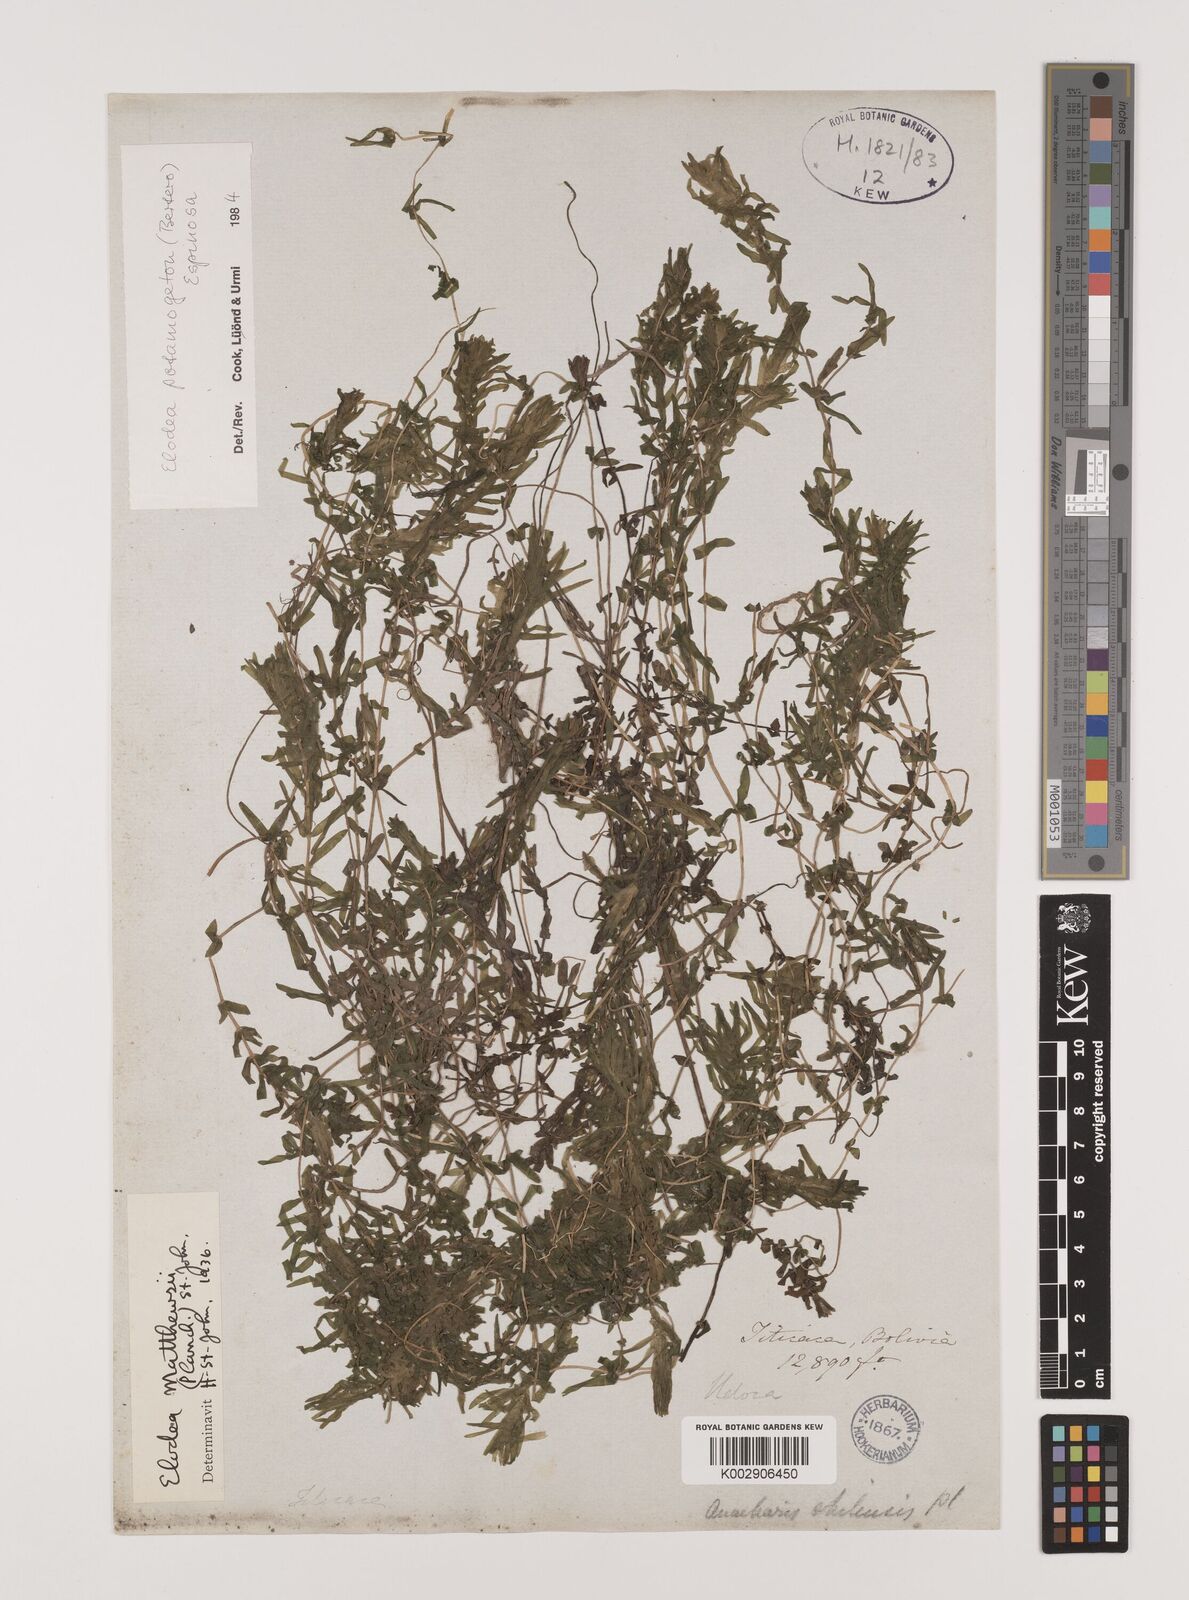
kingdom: Plantae
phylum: Tracheophyta
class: Liliopsida
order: Alismatales
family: Hydrocharitaceae
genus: Elodea
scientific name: Elodea potamogeton
